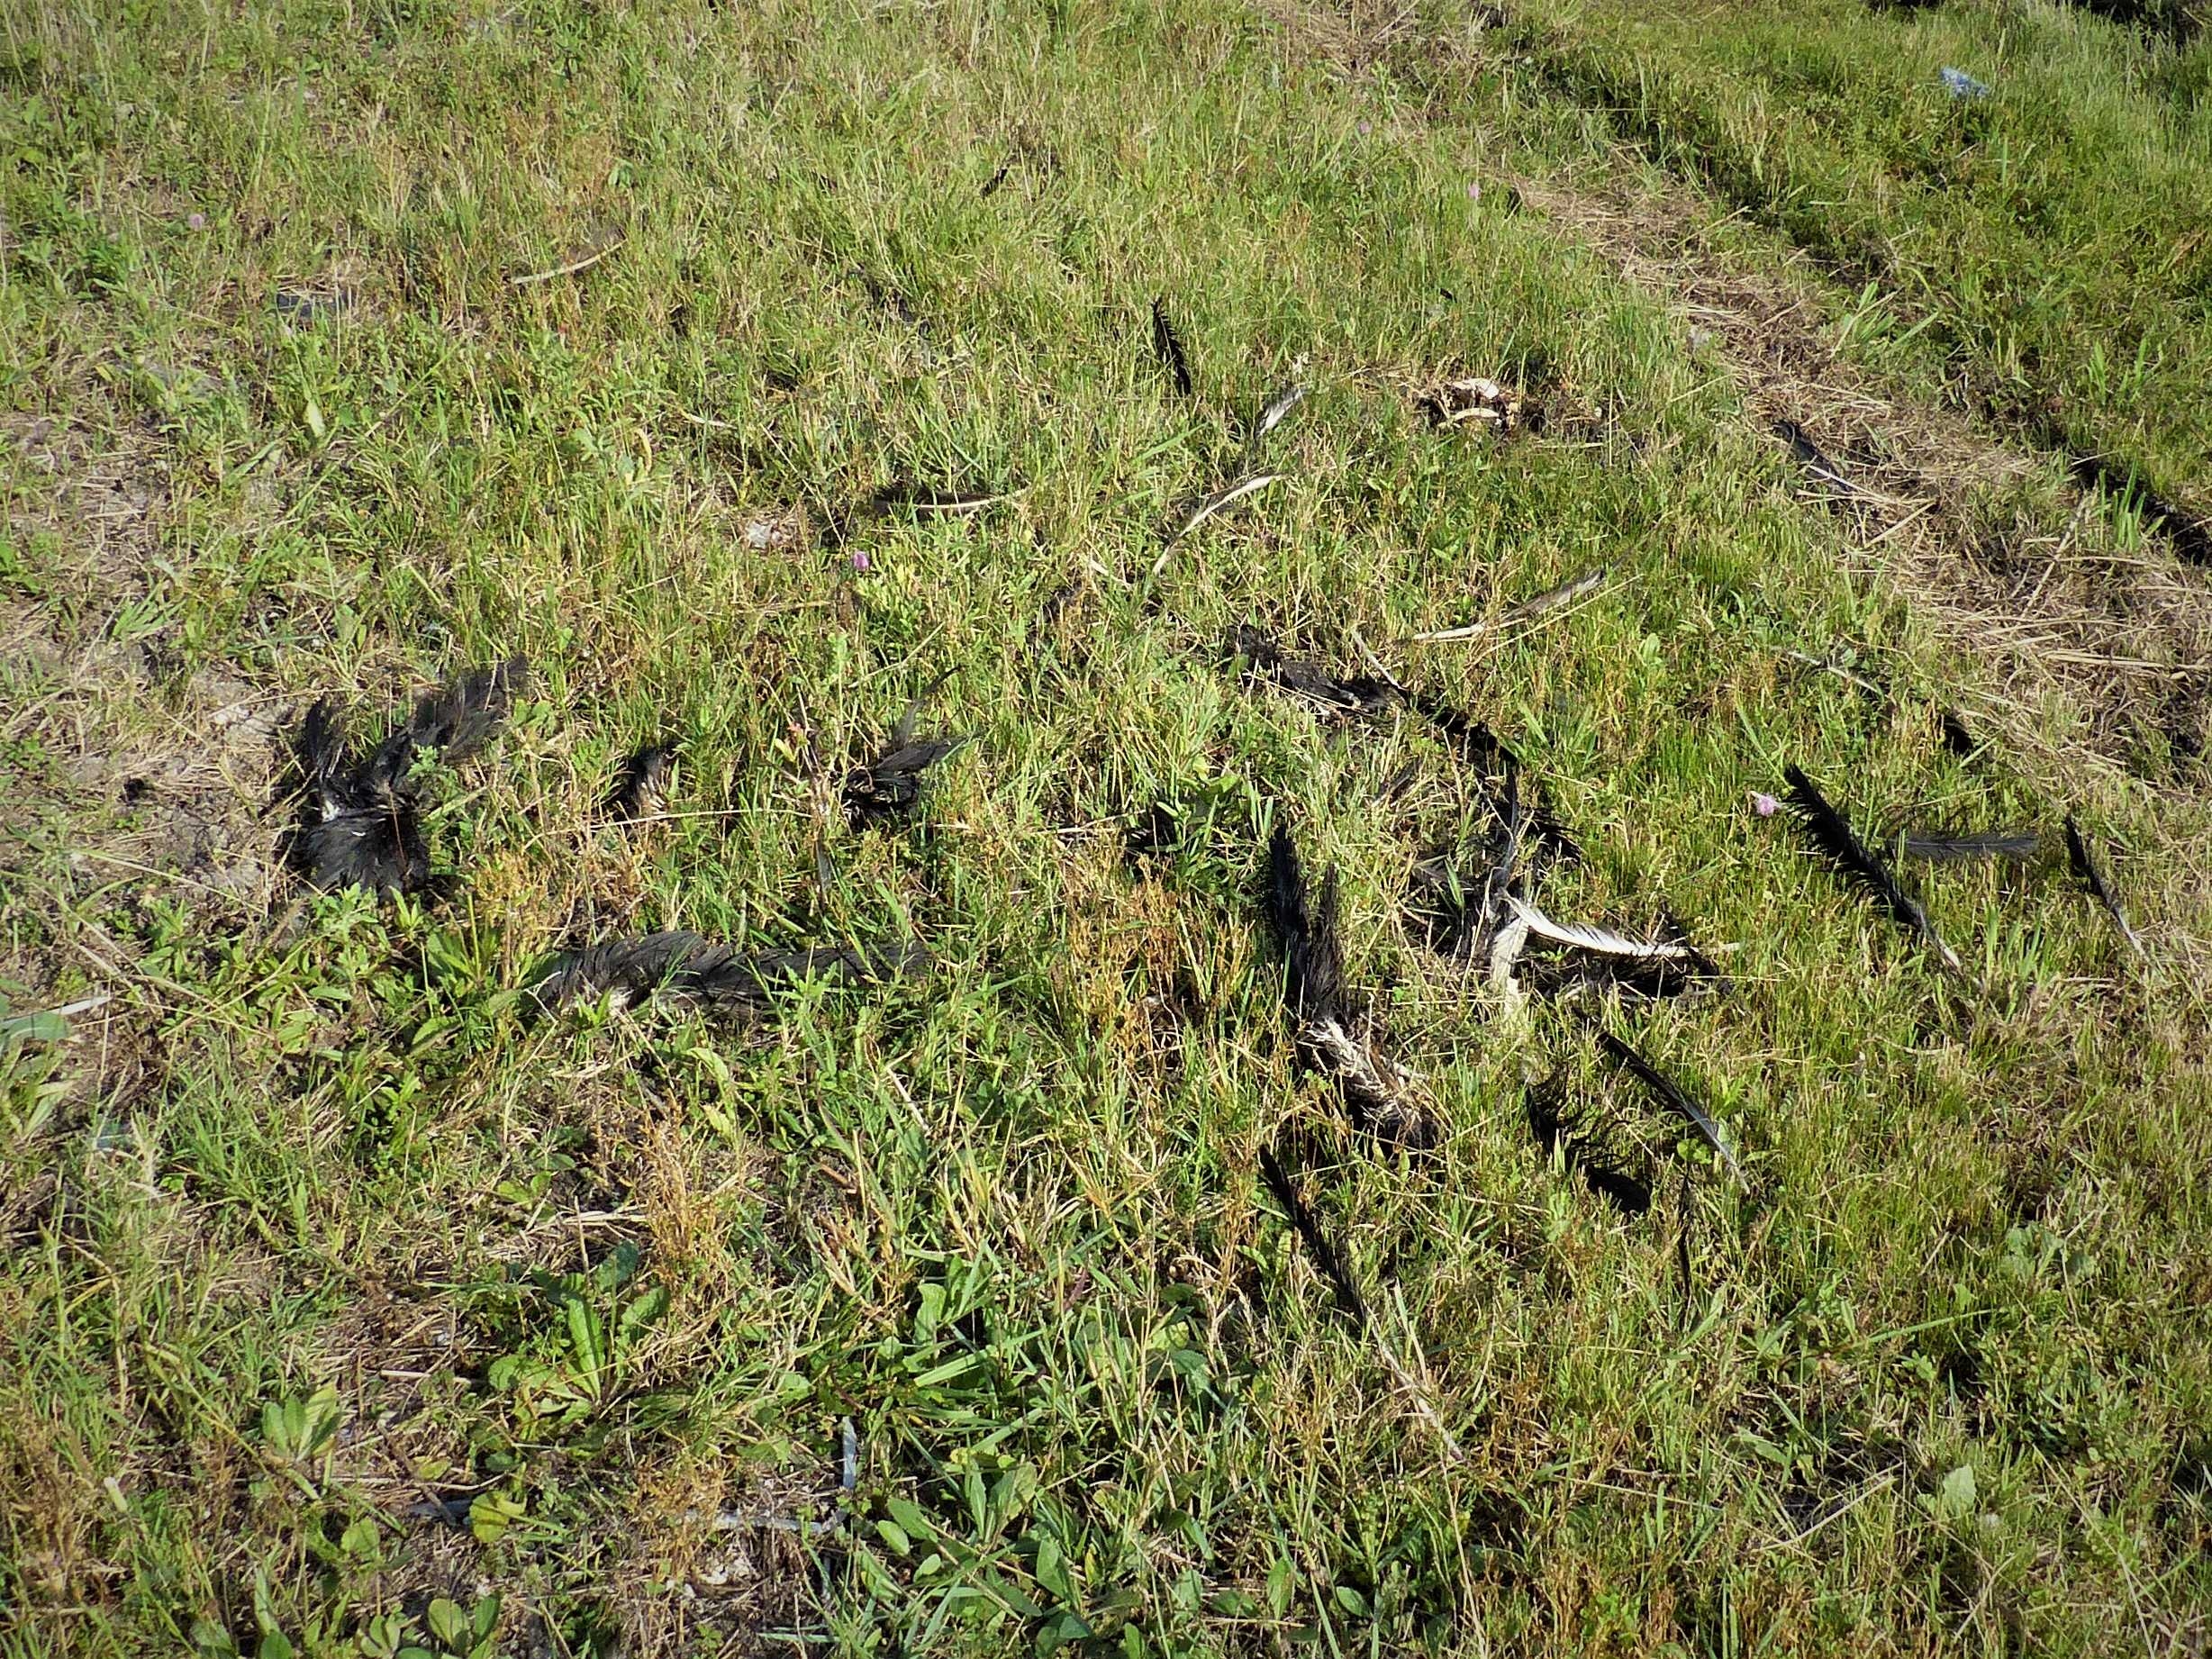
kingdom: Animalia
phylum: Chordata
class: Aves
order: Accipitriformes
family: Cathartidae
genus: Coragyps
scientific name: Coragyps atratus
